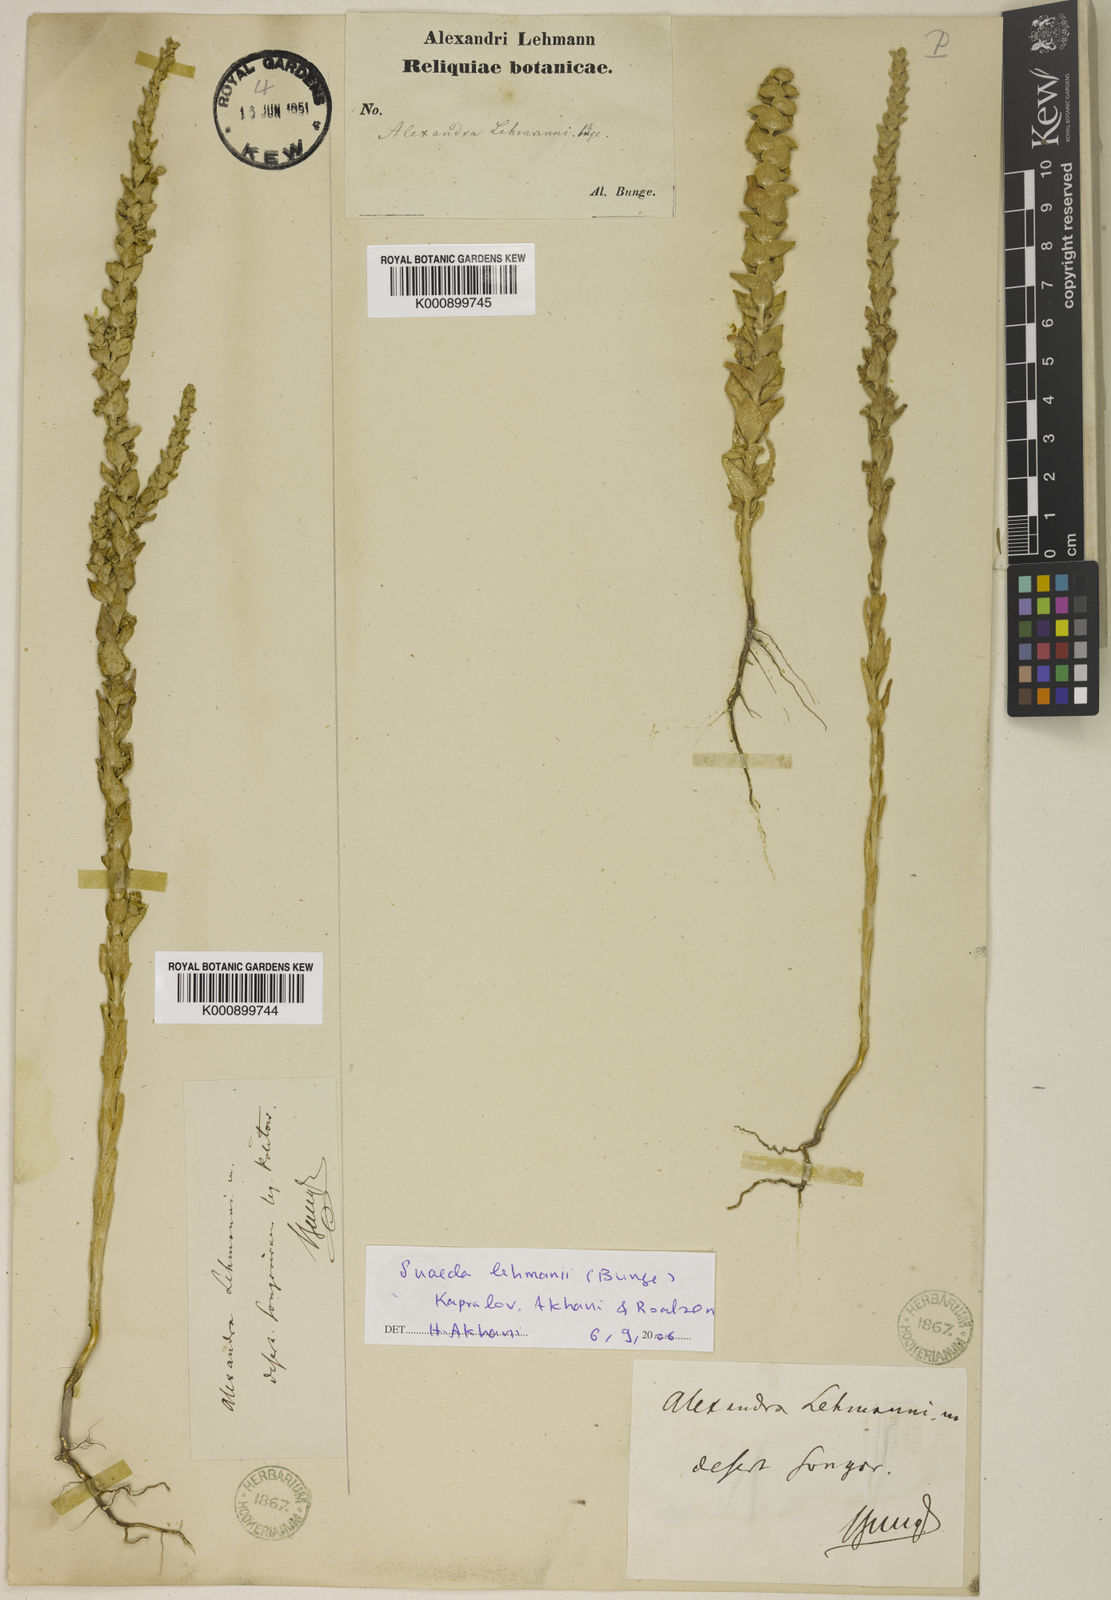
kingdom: Plantae
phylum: Tracheophyta
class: Magnoliopsida
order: Caryophyllales
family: Amaranthaceae
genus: Suaeda
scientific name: Suaeda lehmannii
